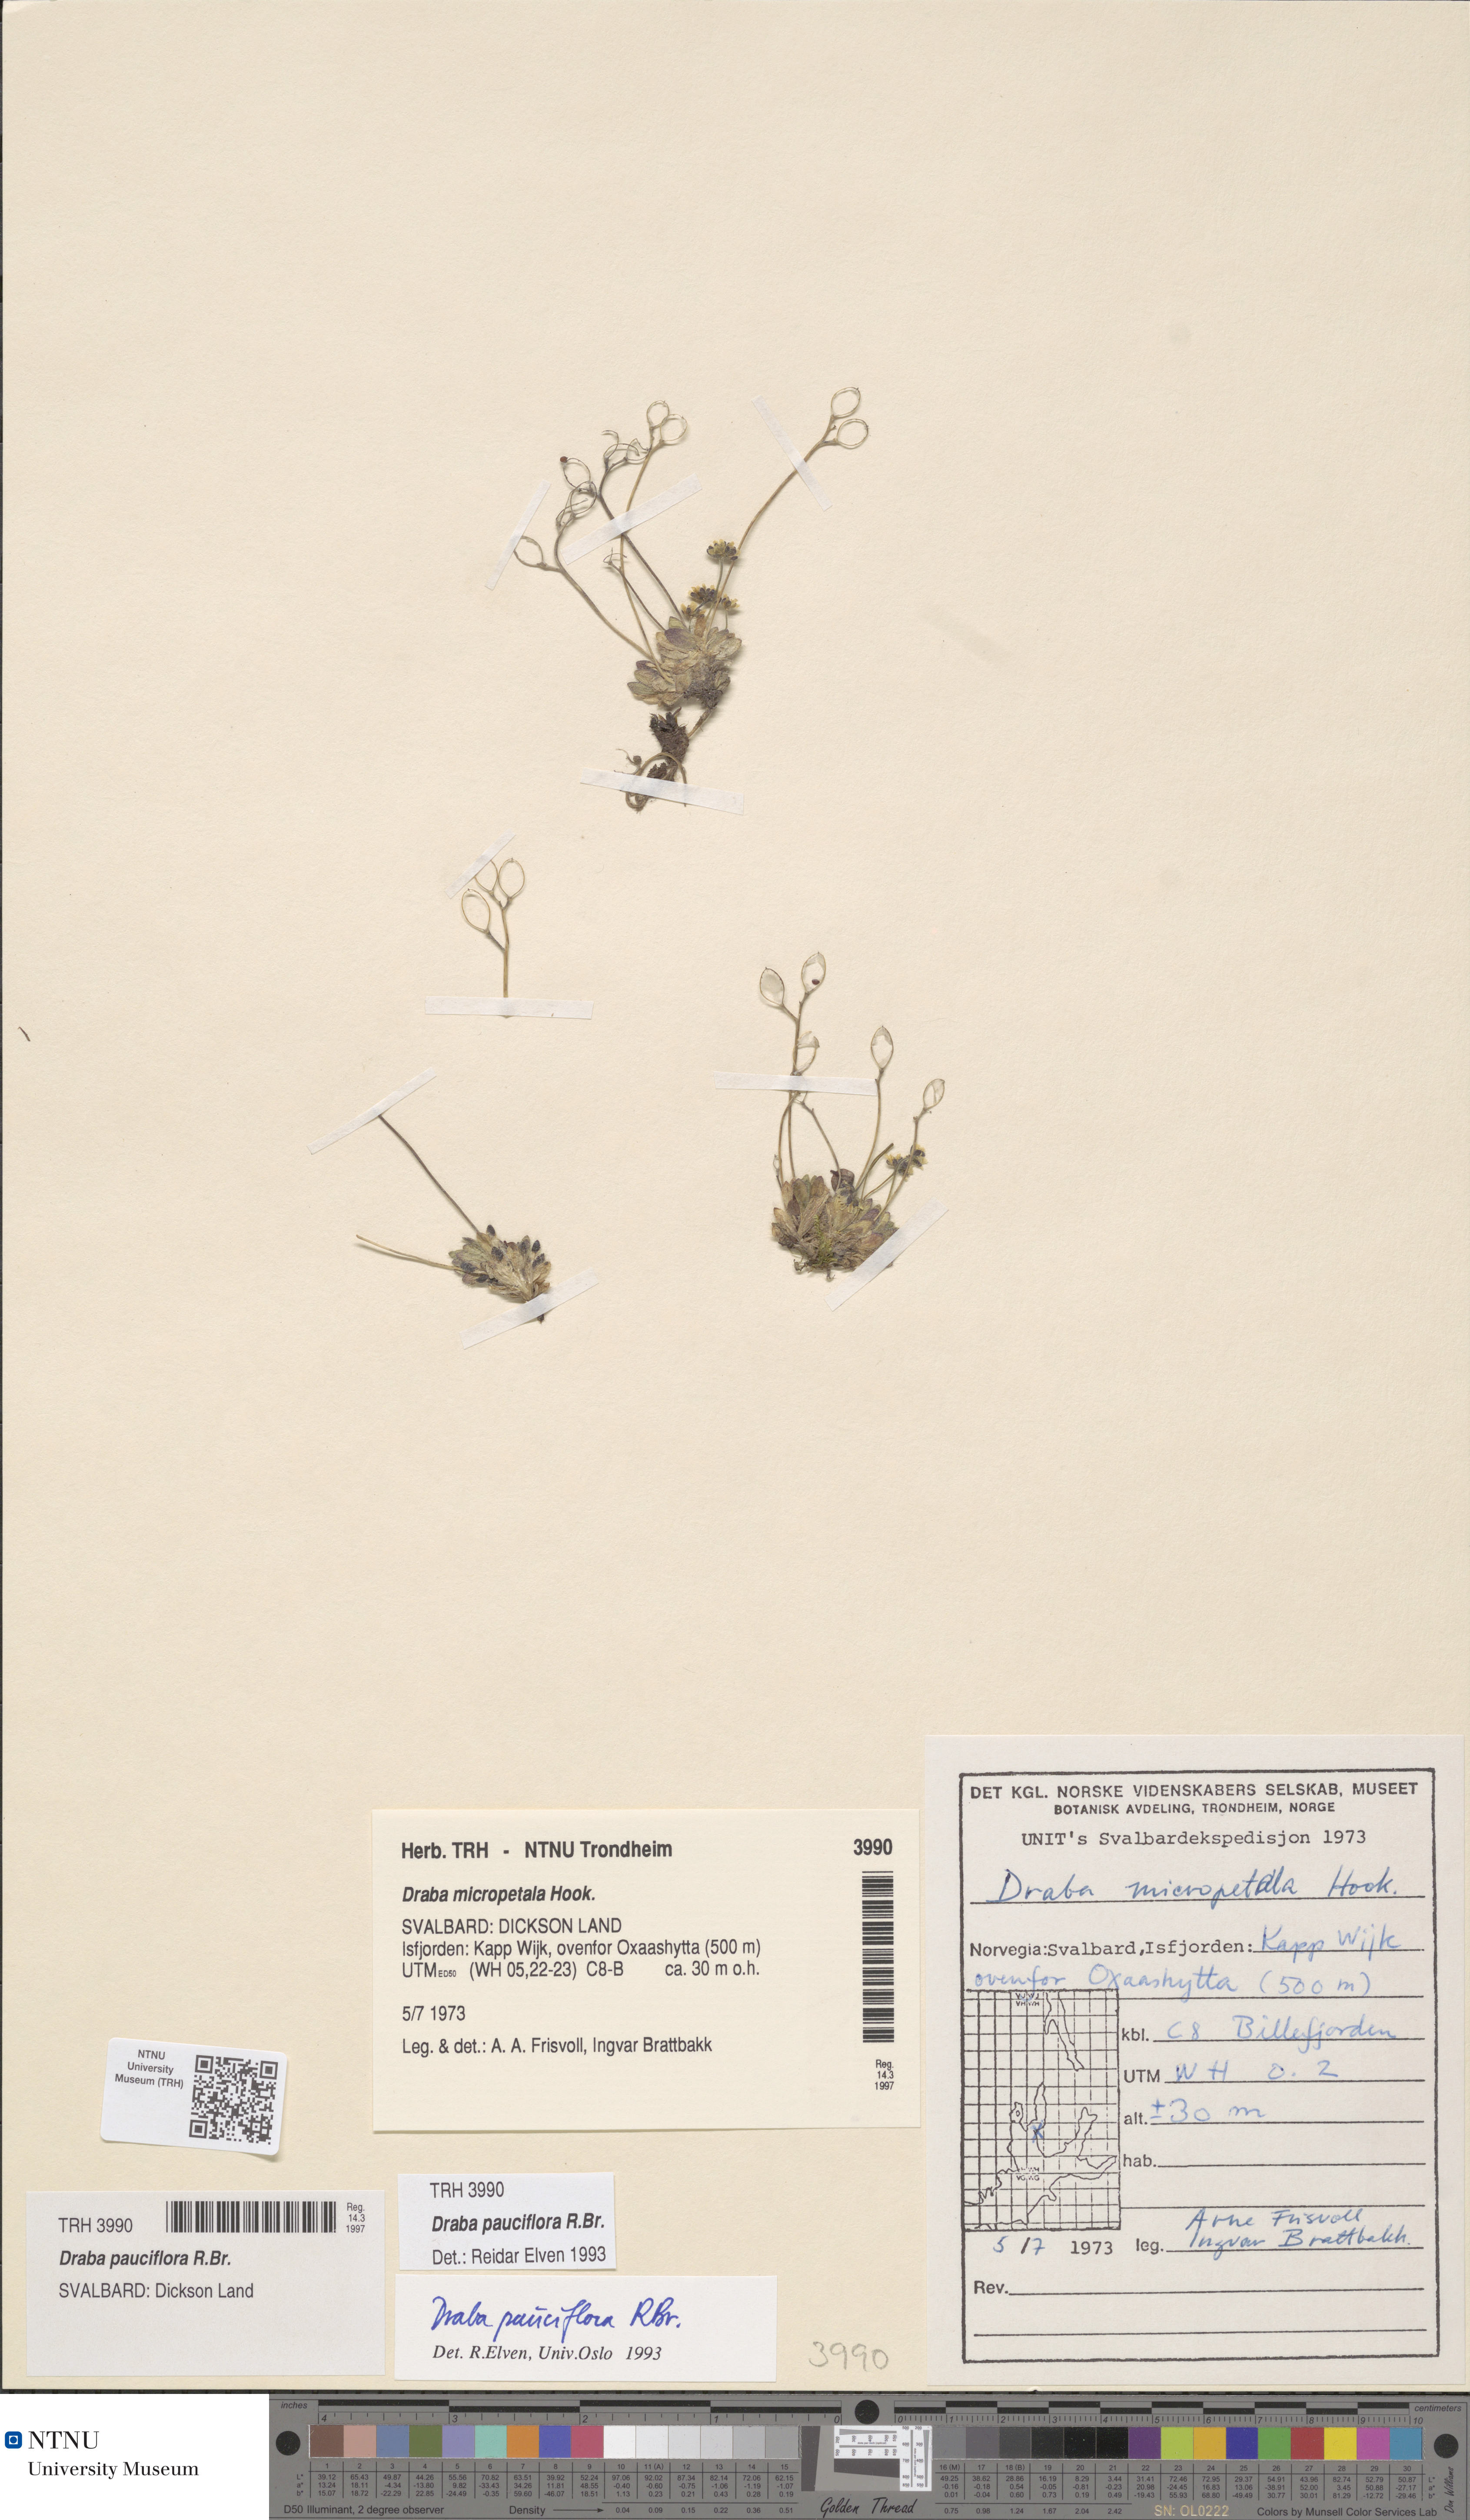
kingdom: Plantae
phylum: Tracheophyta
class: Magnoliopsida
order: Brassicales
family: Brassicaceae
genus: Draba
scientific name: Draba pauciflora
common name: Few-flowered draba
